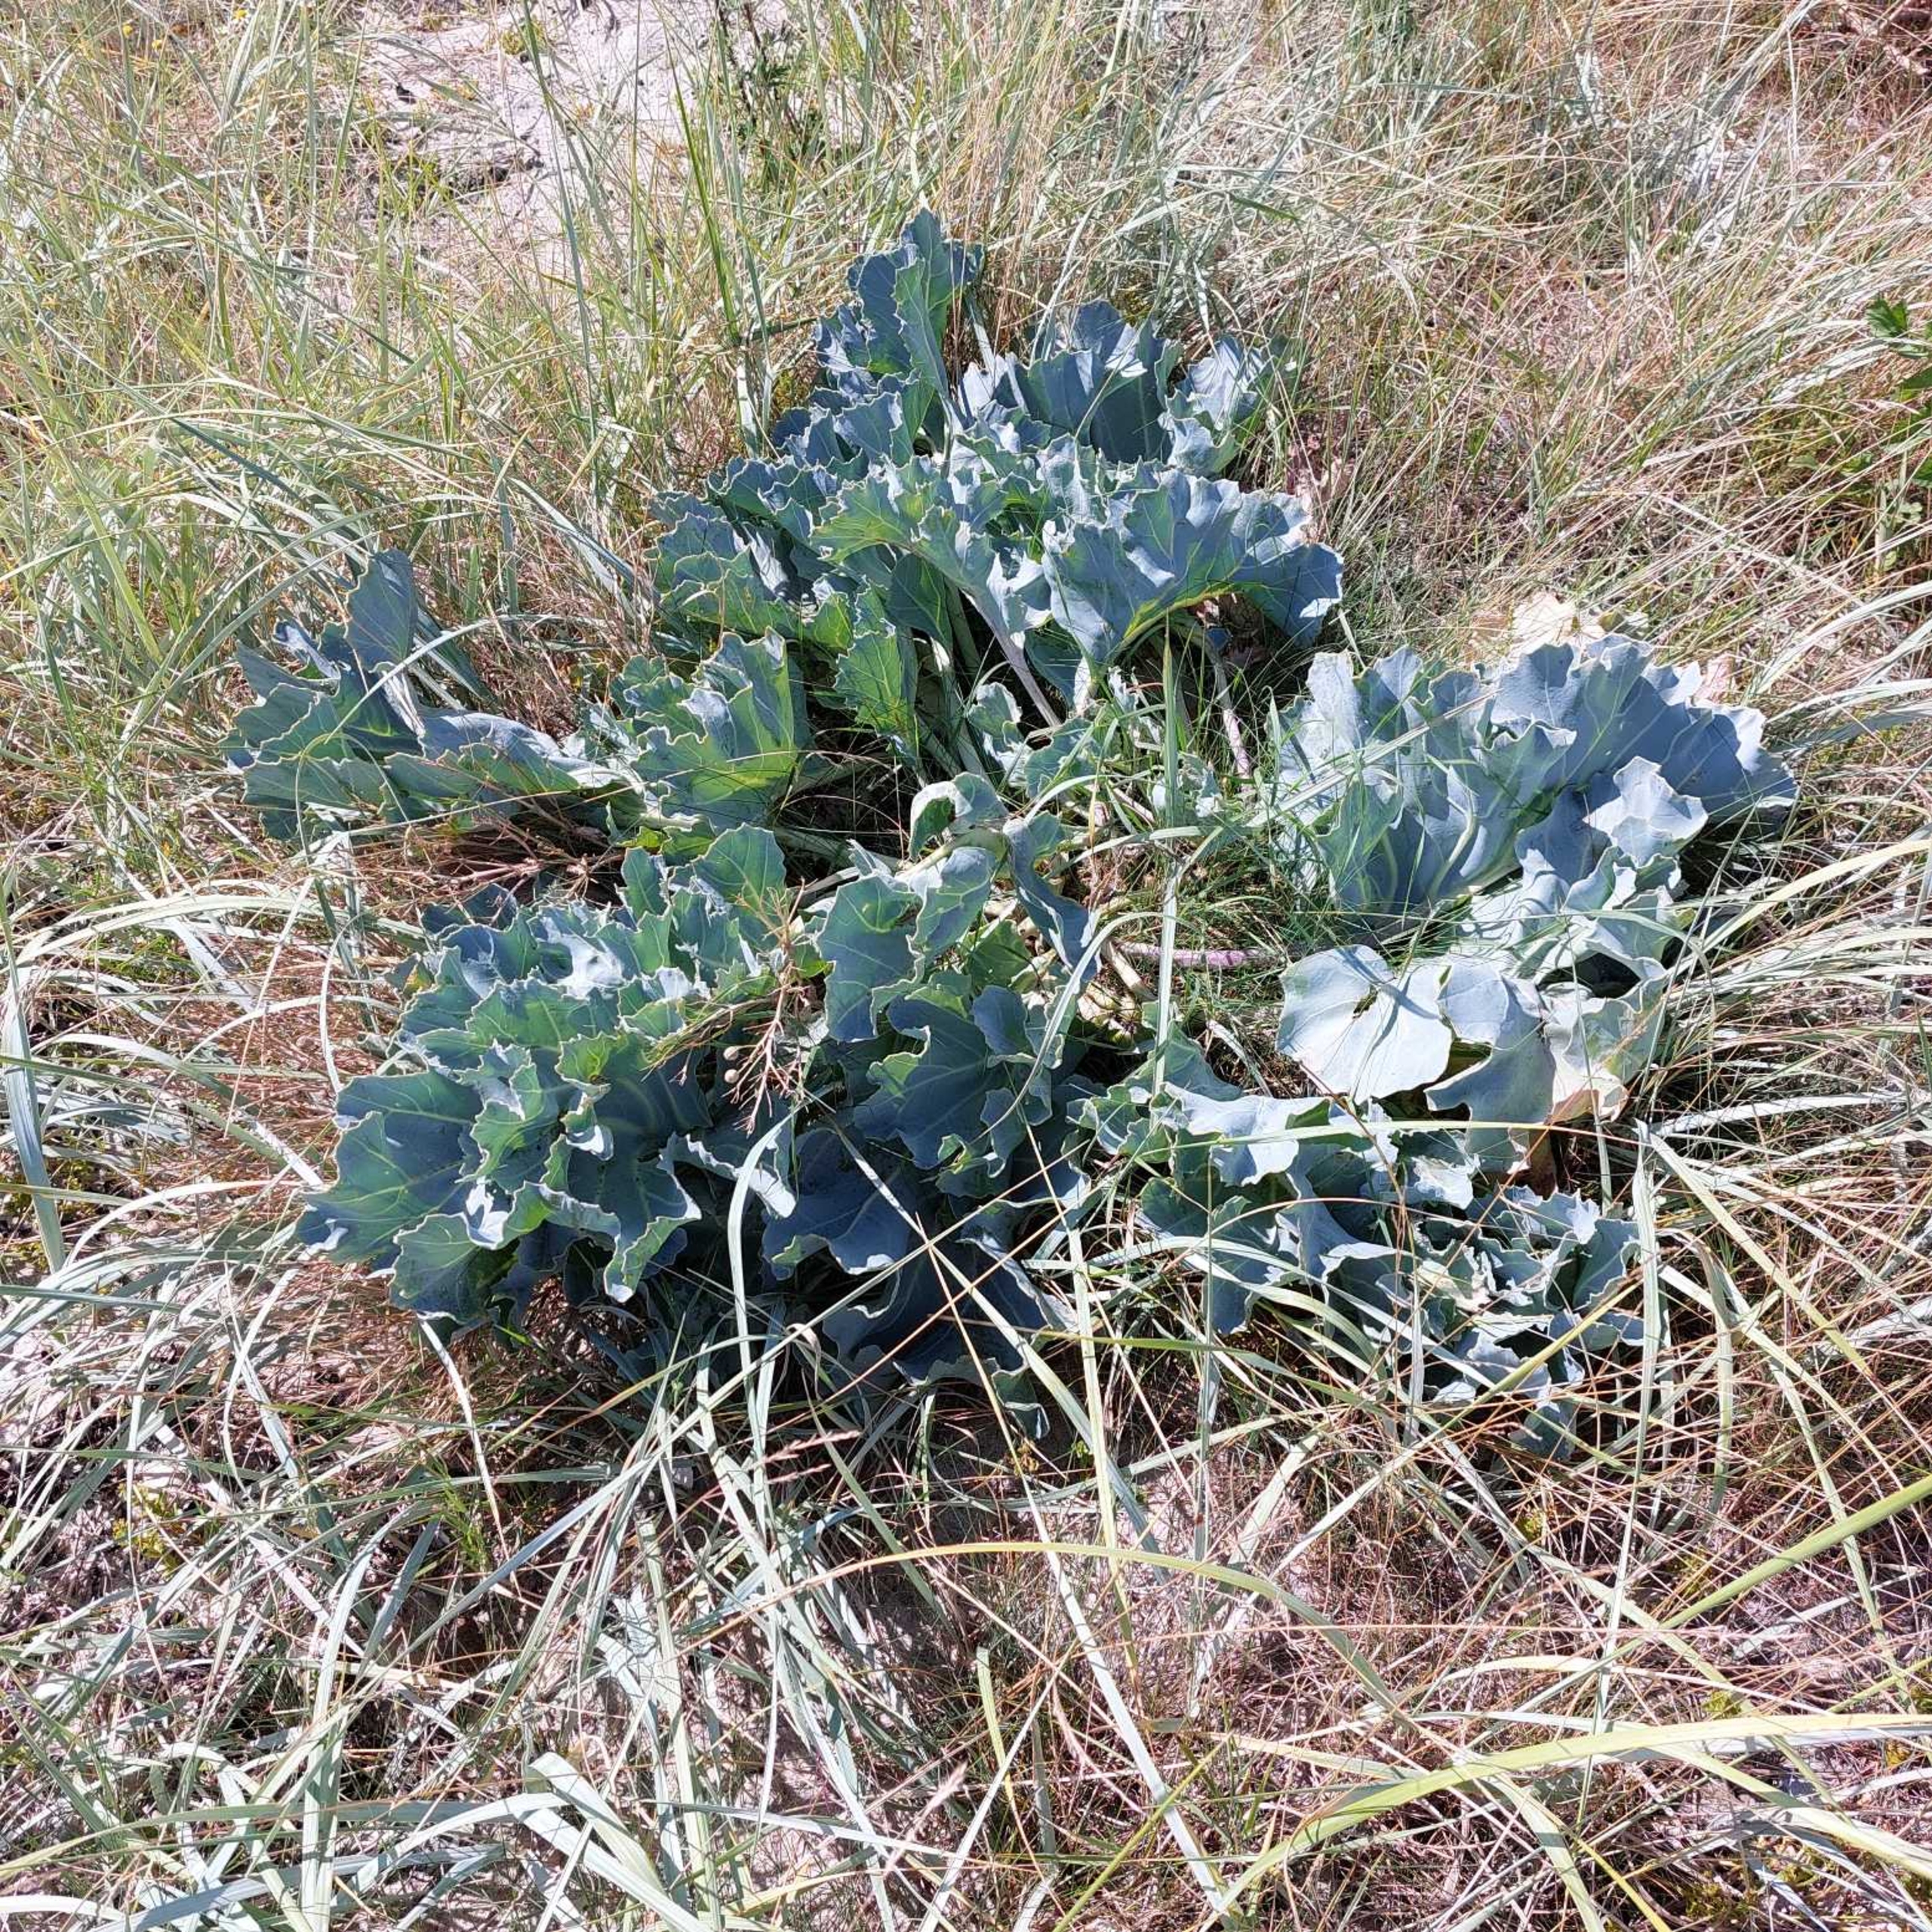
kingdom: Plantae
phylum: Tracheophyta
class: Magnoliopsida
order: Brassicales
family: Brassicaceae
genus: Crambe
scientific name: Crambe maritima
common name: Strandkål
